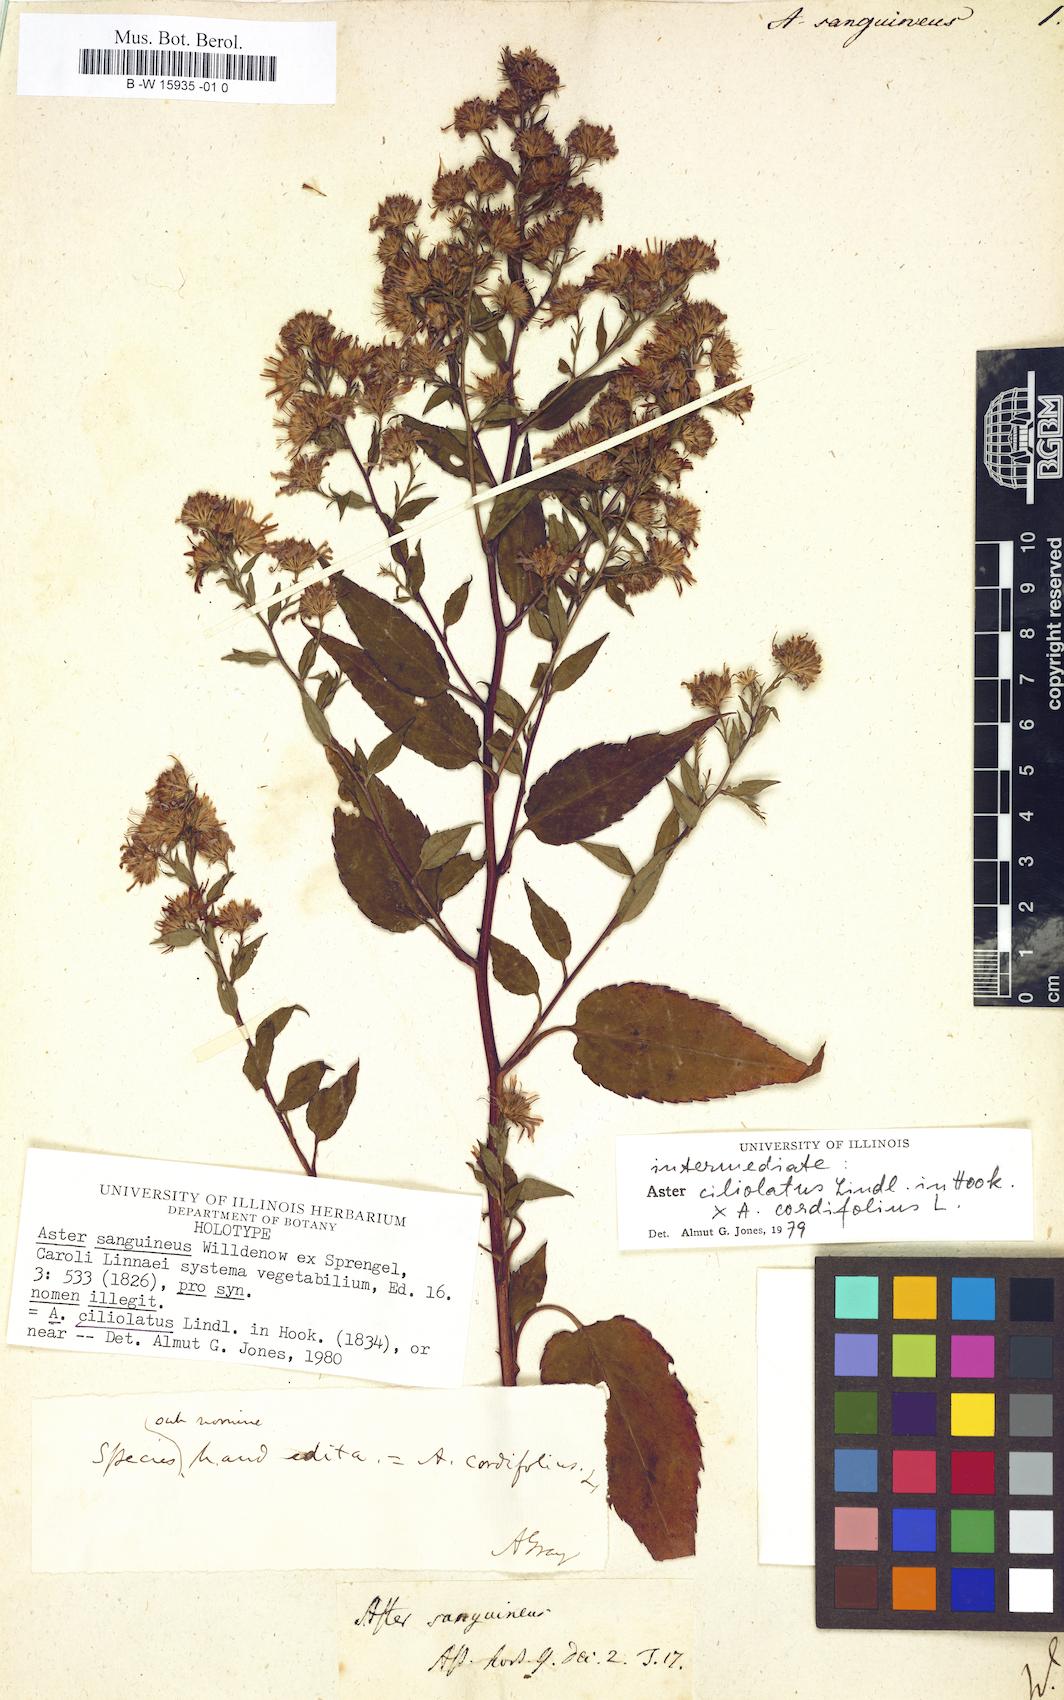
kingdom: Plantae
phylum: Tracheophyta
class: Magnoliopsida
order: Asterales
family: Asteraceae
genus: Symphyotrichum
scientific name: Symphyotrichum salignum
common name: Common michaelmas daisy
